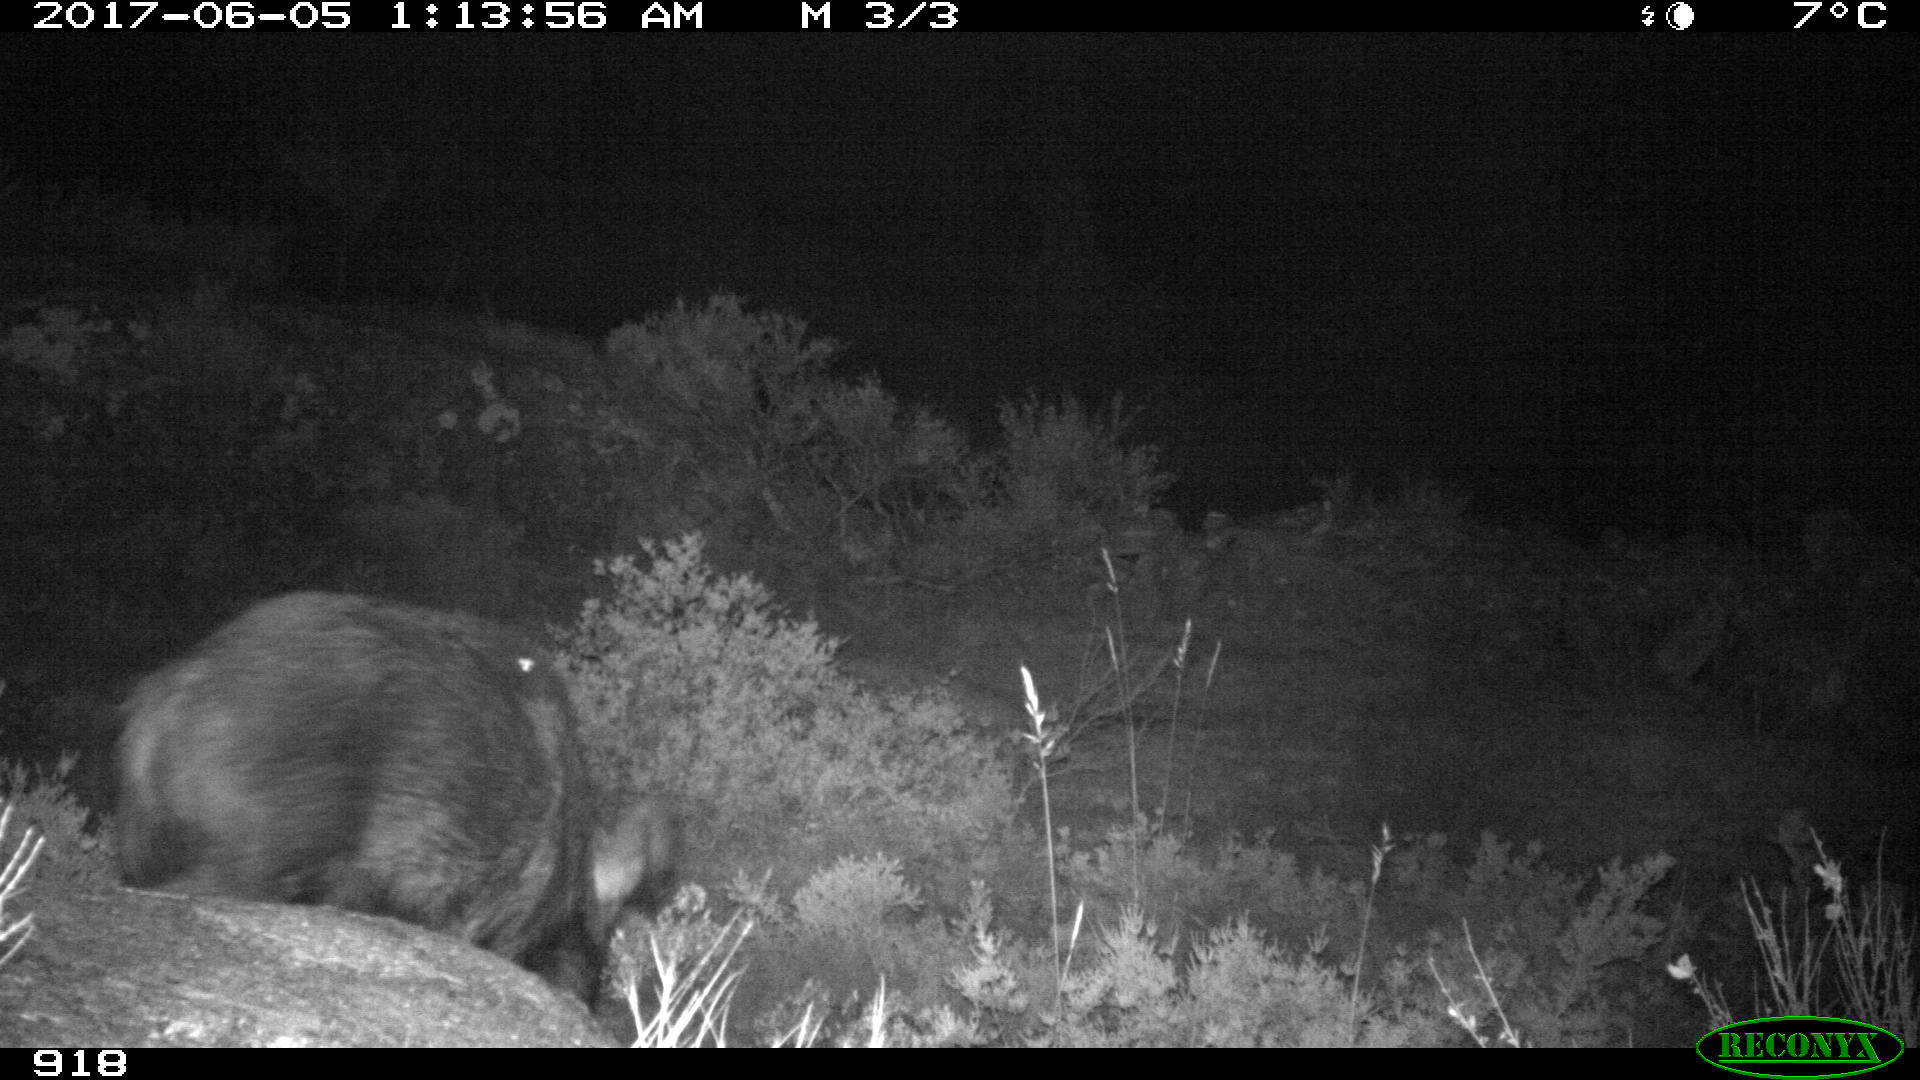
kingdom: Animalia
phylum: Chordata
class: Mammalia
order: Artiodactyla
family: Suidae
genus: Sus
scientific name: Sus scrofa
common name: Wild boar
